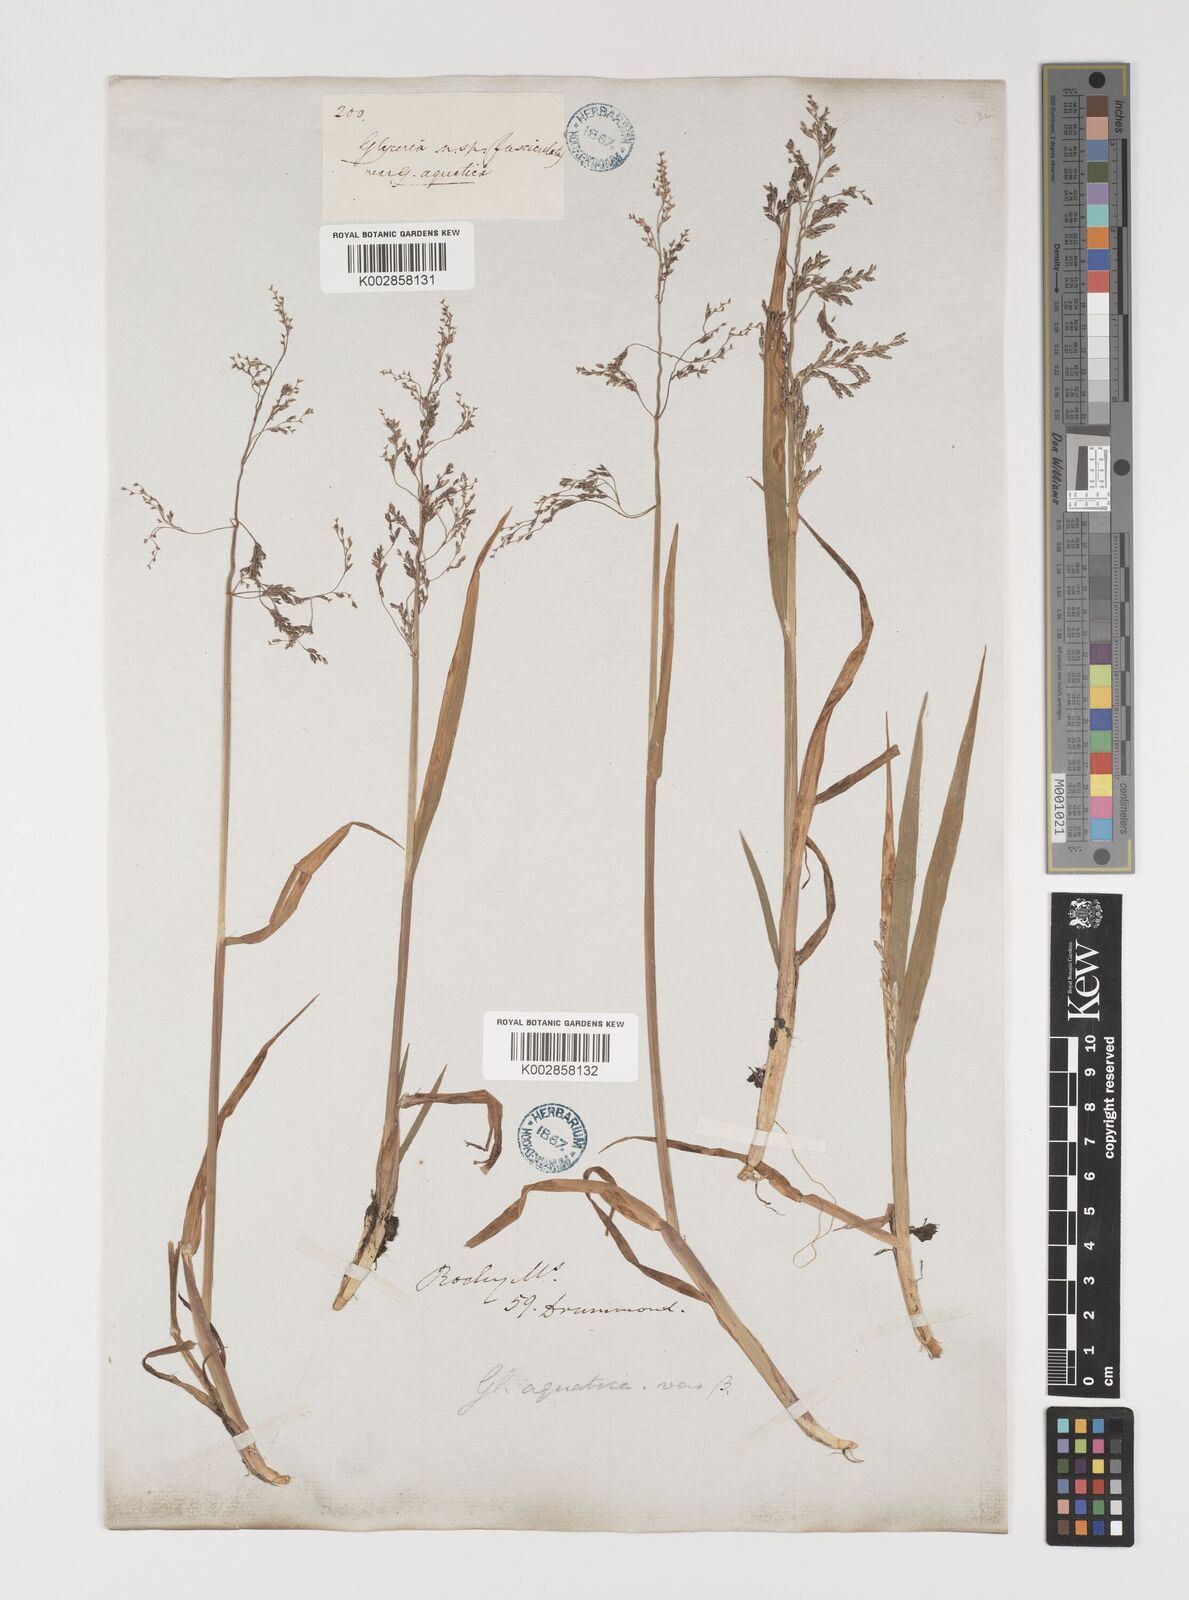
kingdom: Plantae
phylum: Tracheophyta
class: Liliopsida
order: Poales
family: Poaceae
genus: Torreyochloa
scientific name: Torreyochloa pallida
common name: Pale false mannagrass
